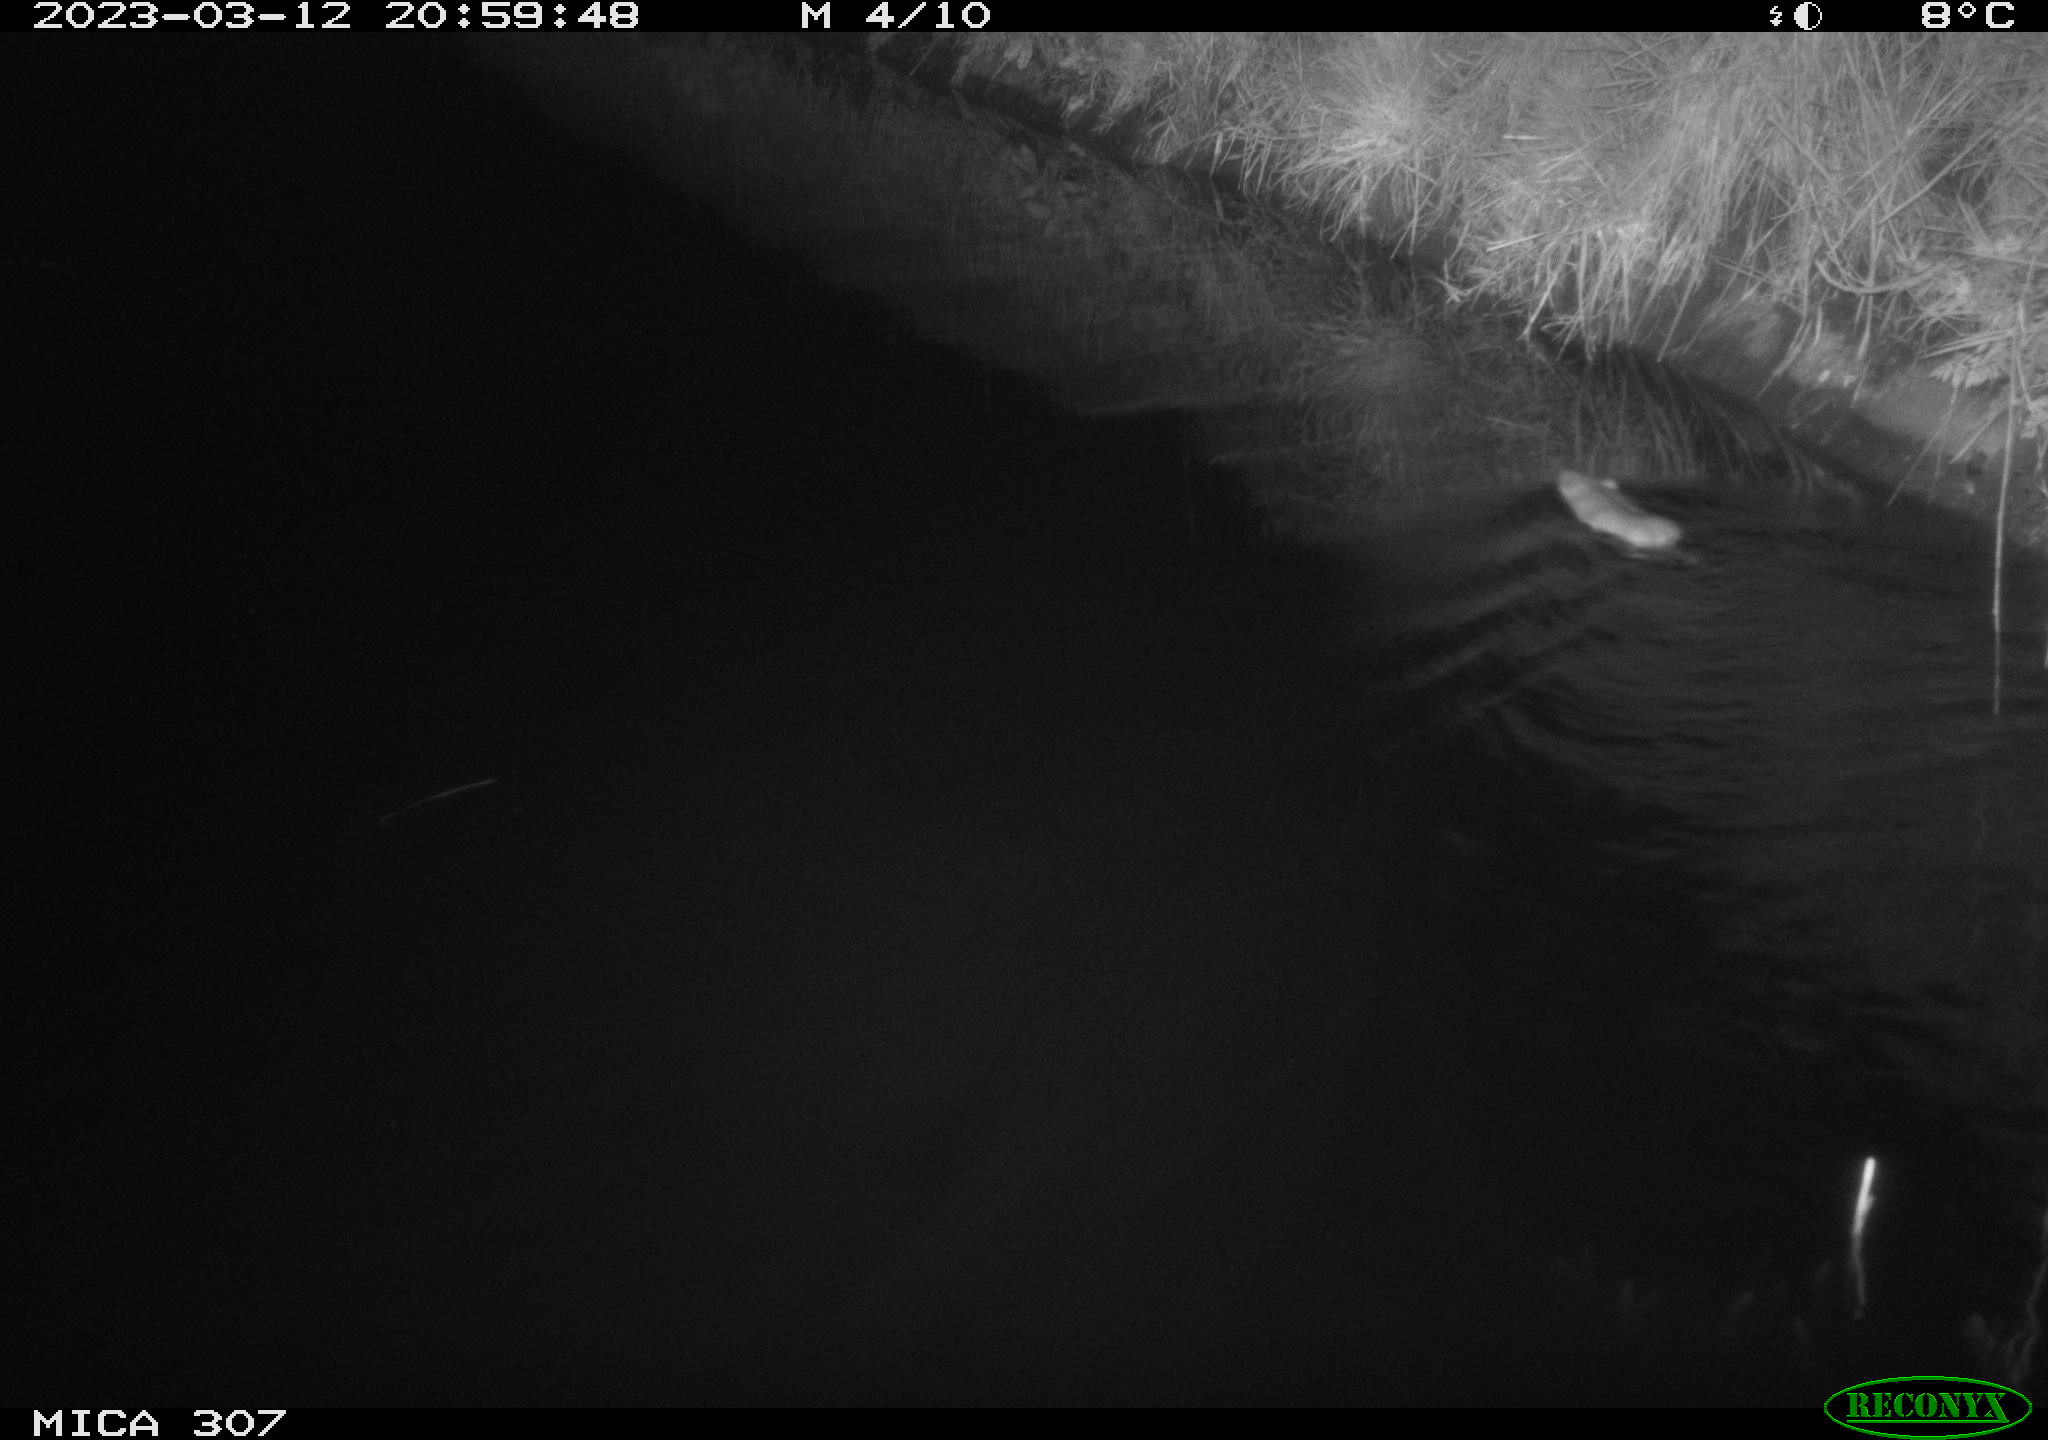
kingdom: Animalia
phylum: Chordata
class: Mammalia
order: Rodentia
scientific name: Rodentia
